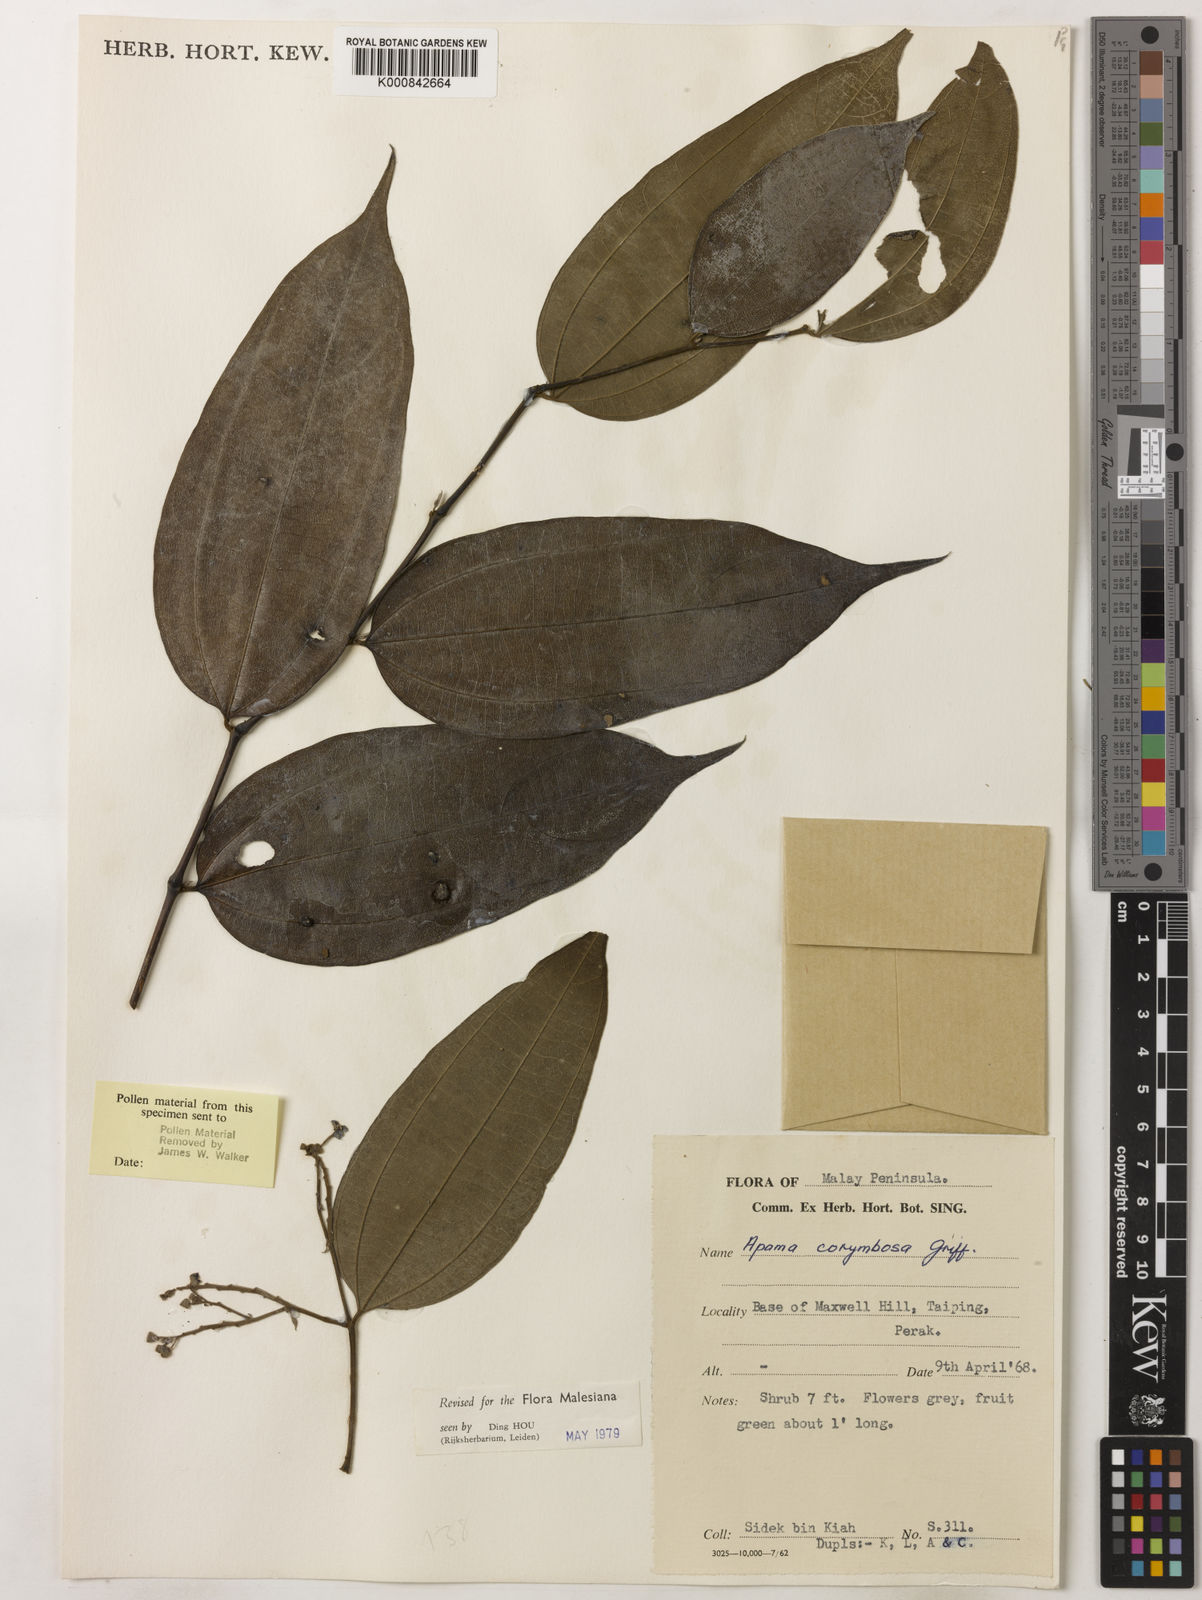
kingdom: Plantae
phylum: Tracheophyta
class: Magnoliopsida
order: Piperales
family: Aristolochiaceae
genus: Thottea
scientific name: Thottea piperiformis
